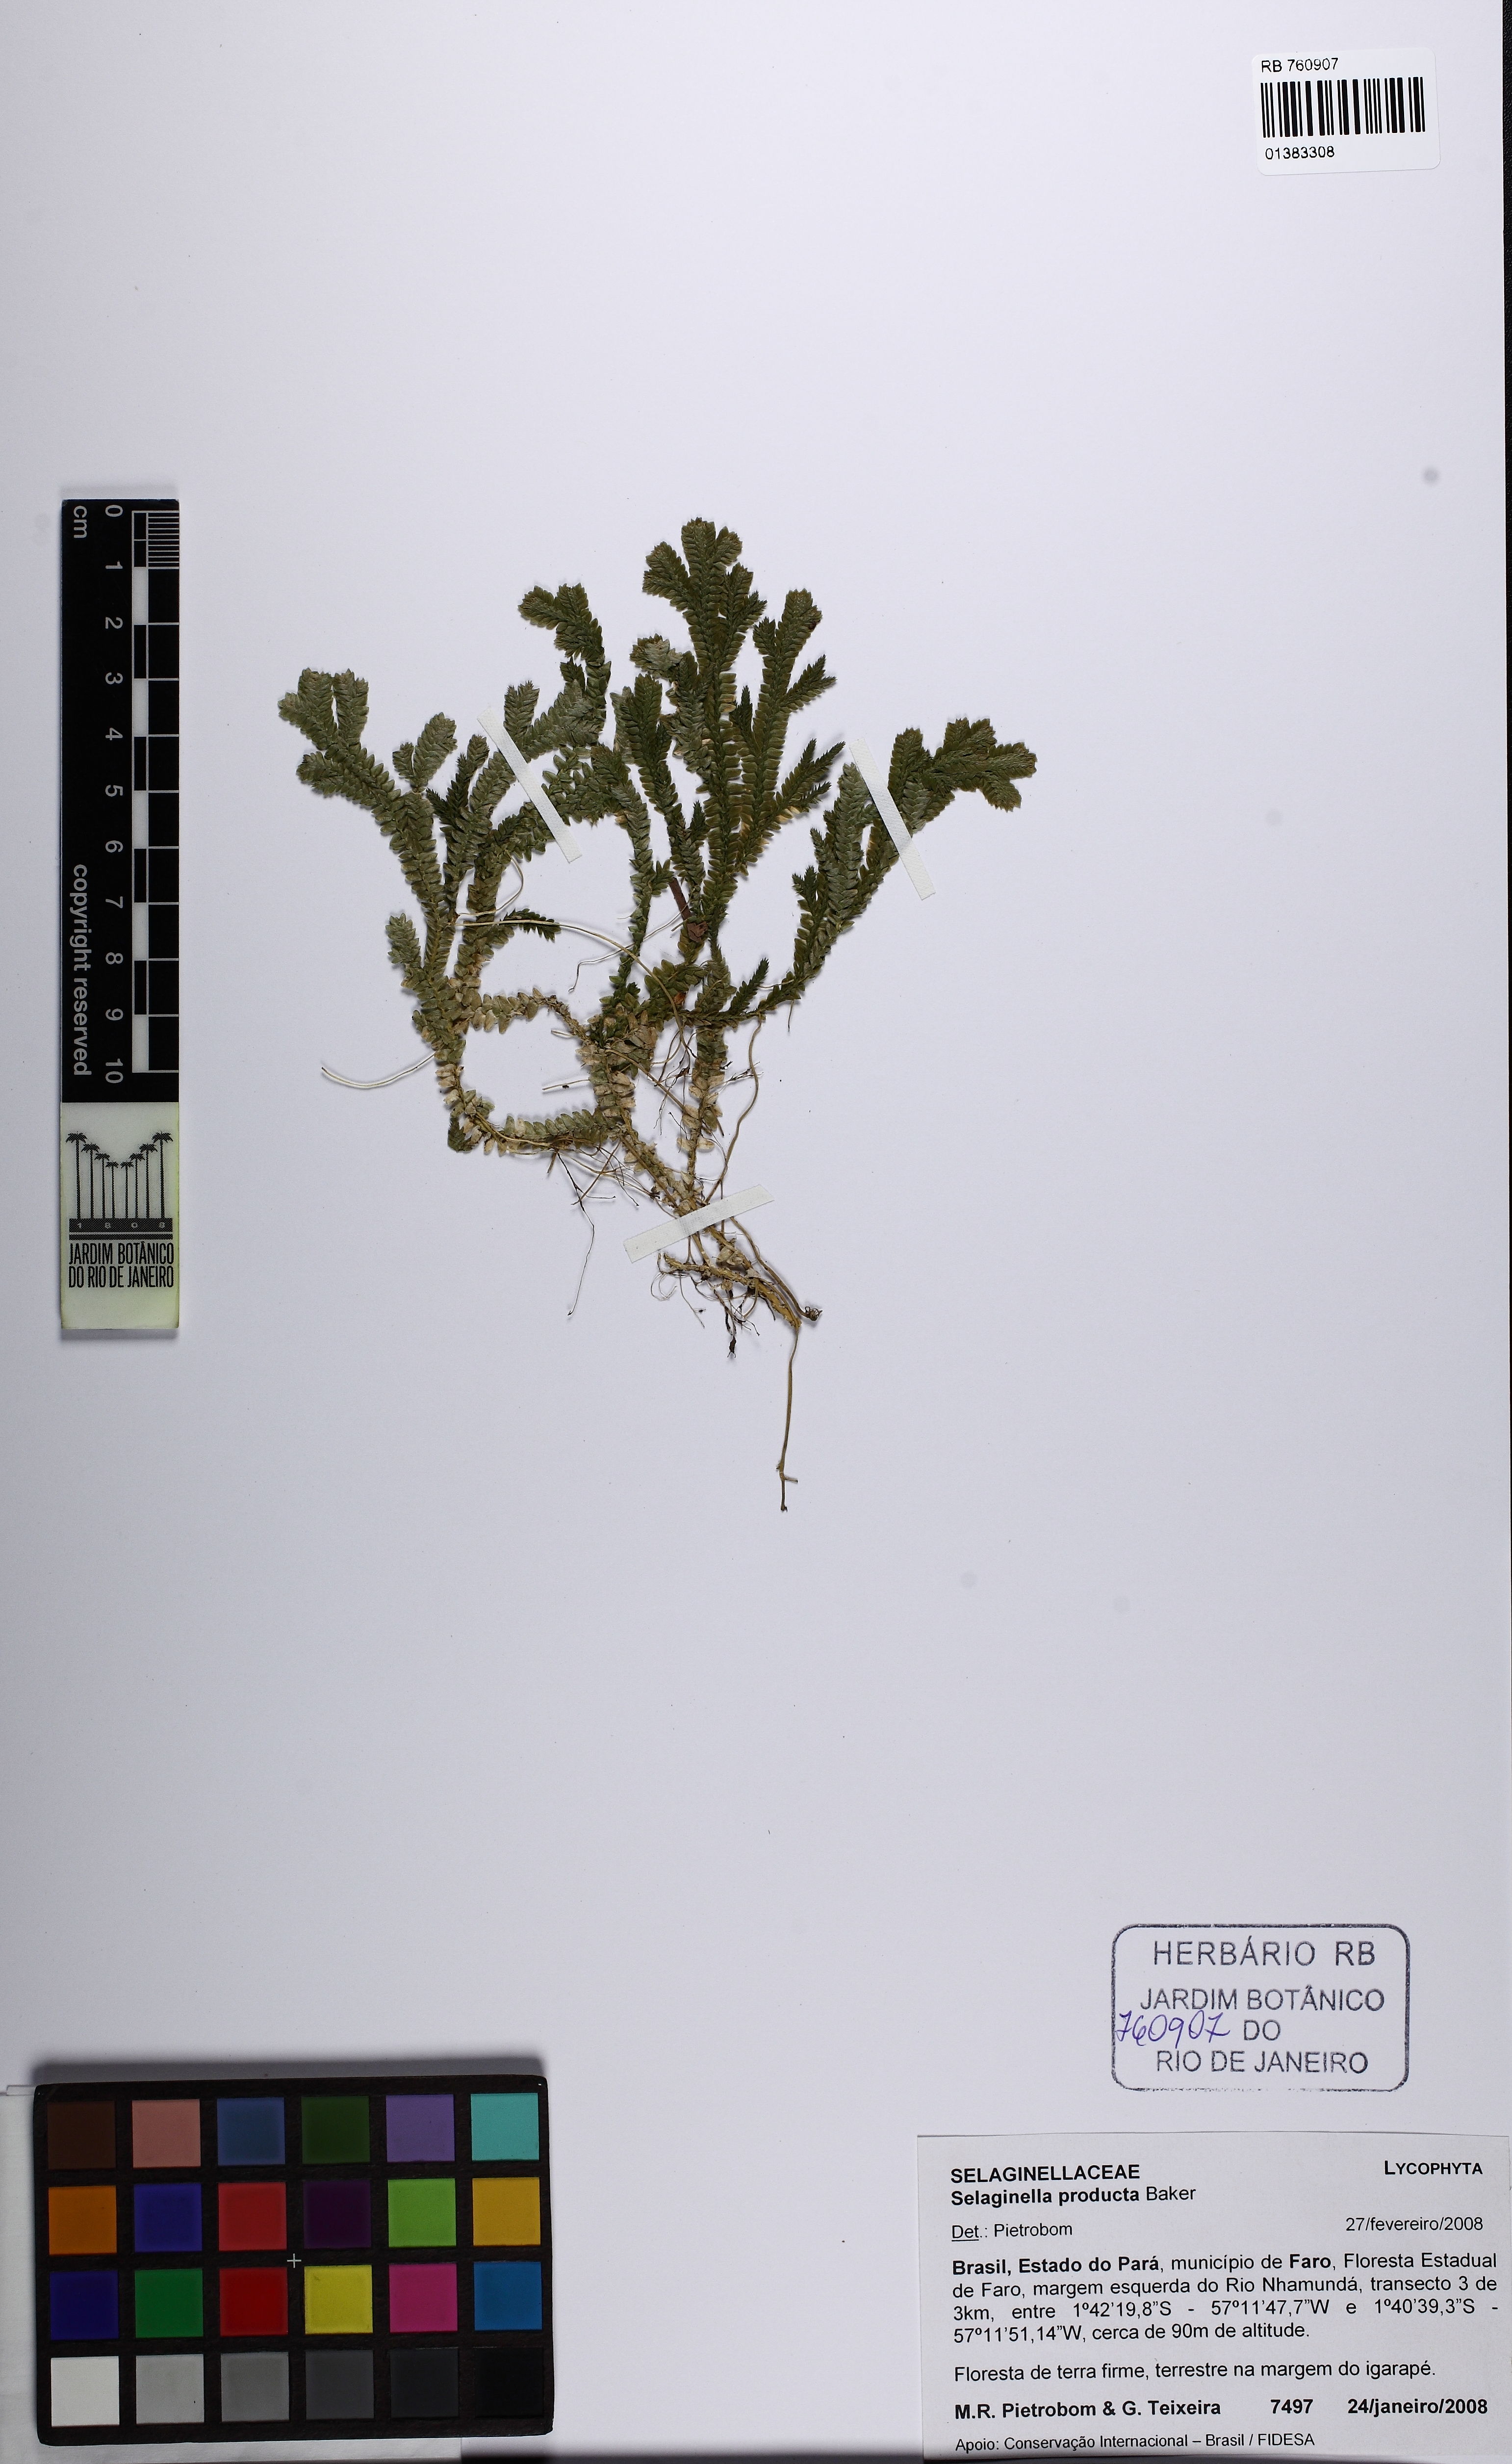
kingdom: Plantae
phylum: Tracheophyta
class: Lycopodiopsida
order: Selaginellales
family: Selaginellaceae
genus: Selaginella
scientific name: Selaginella producta
